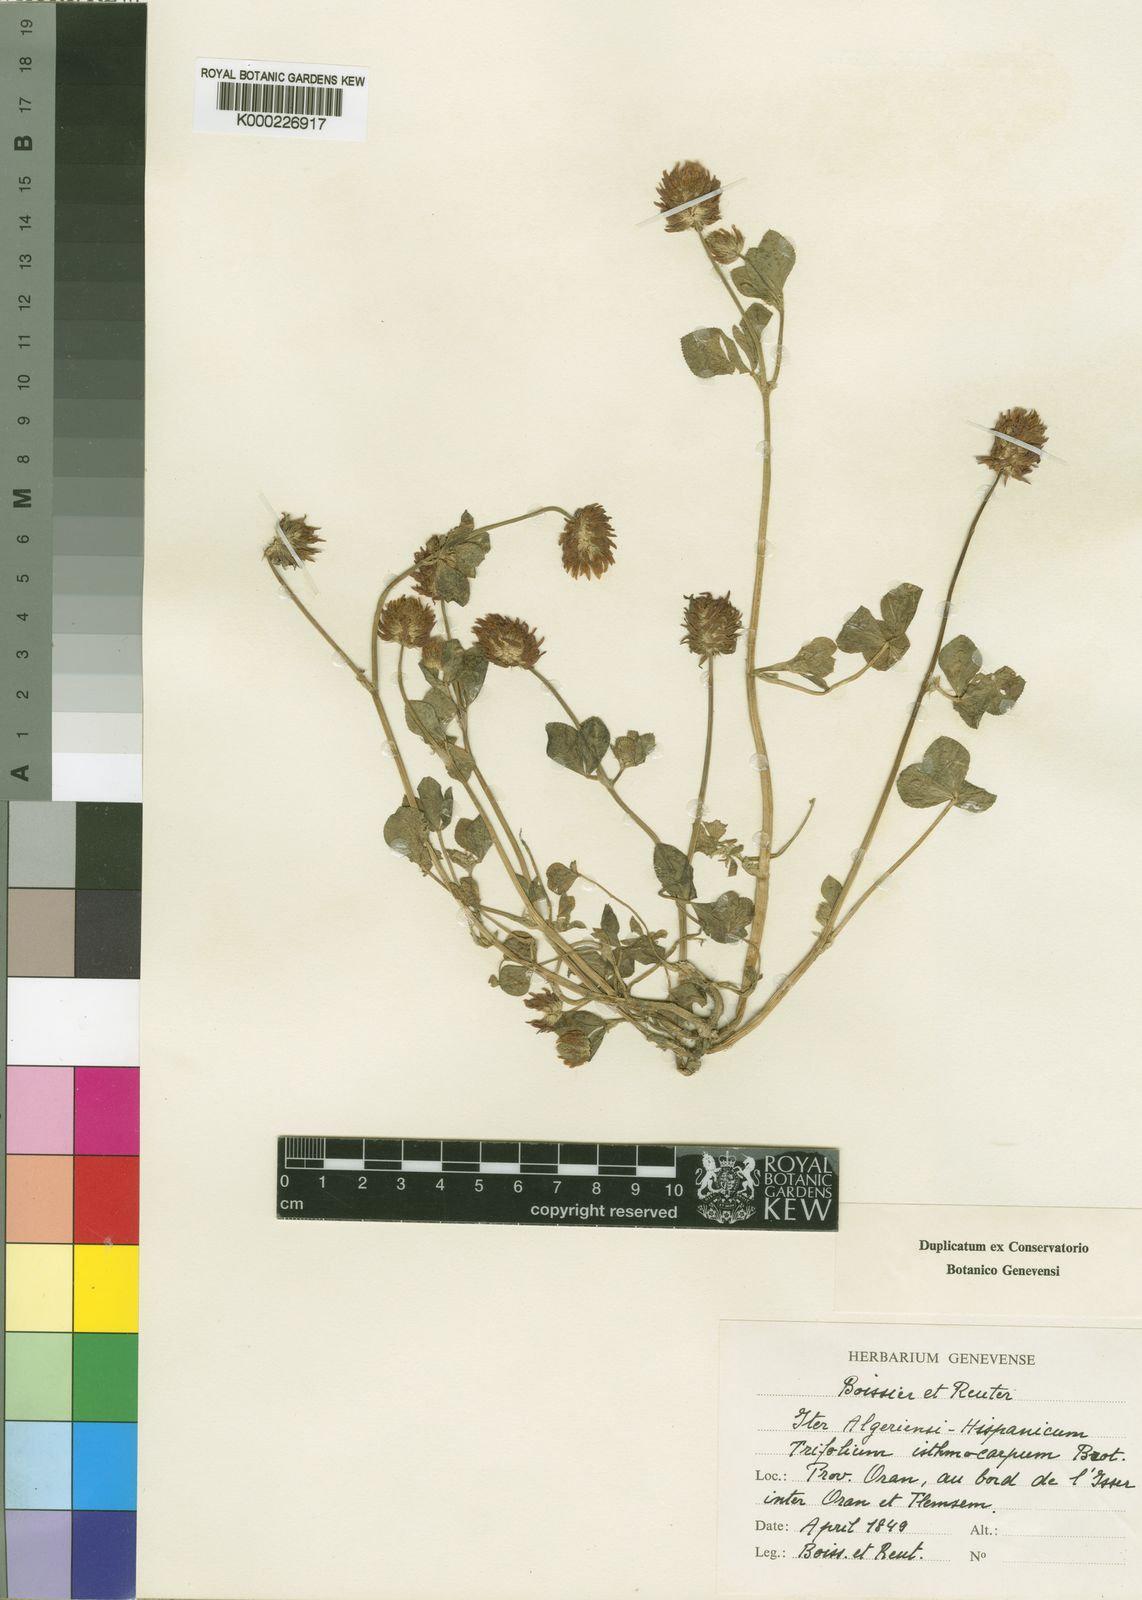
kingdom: Plantae
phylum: Tracheophyta
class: Magnoliopsida
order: Fabales
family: Fabaceae
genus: Trifolium
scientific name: Trifolium isthmocarpum
